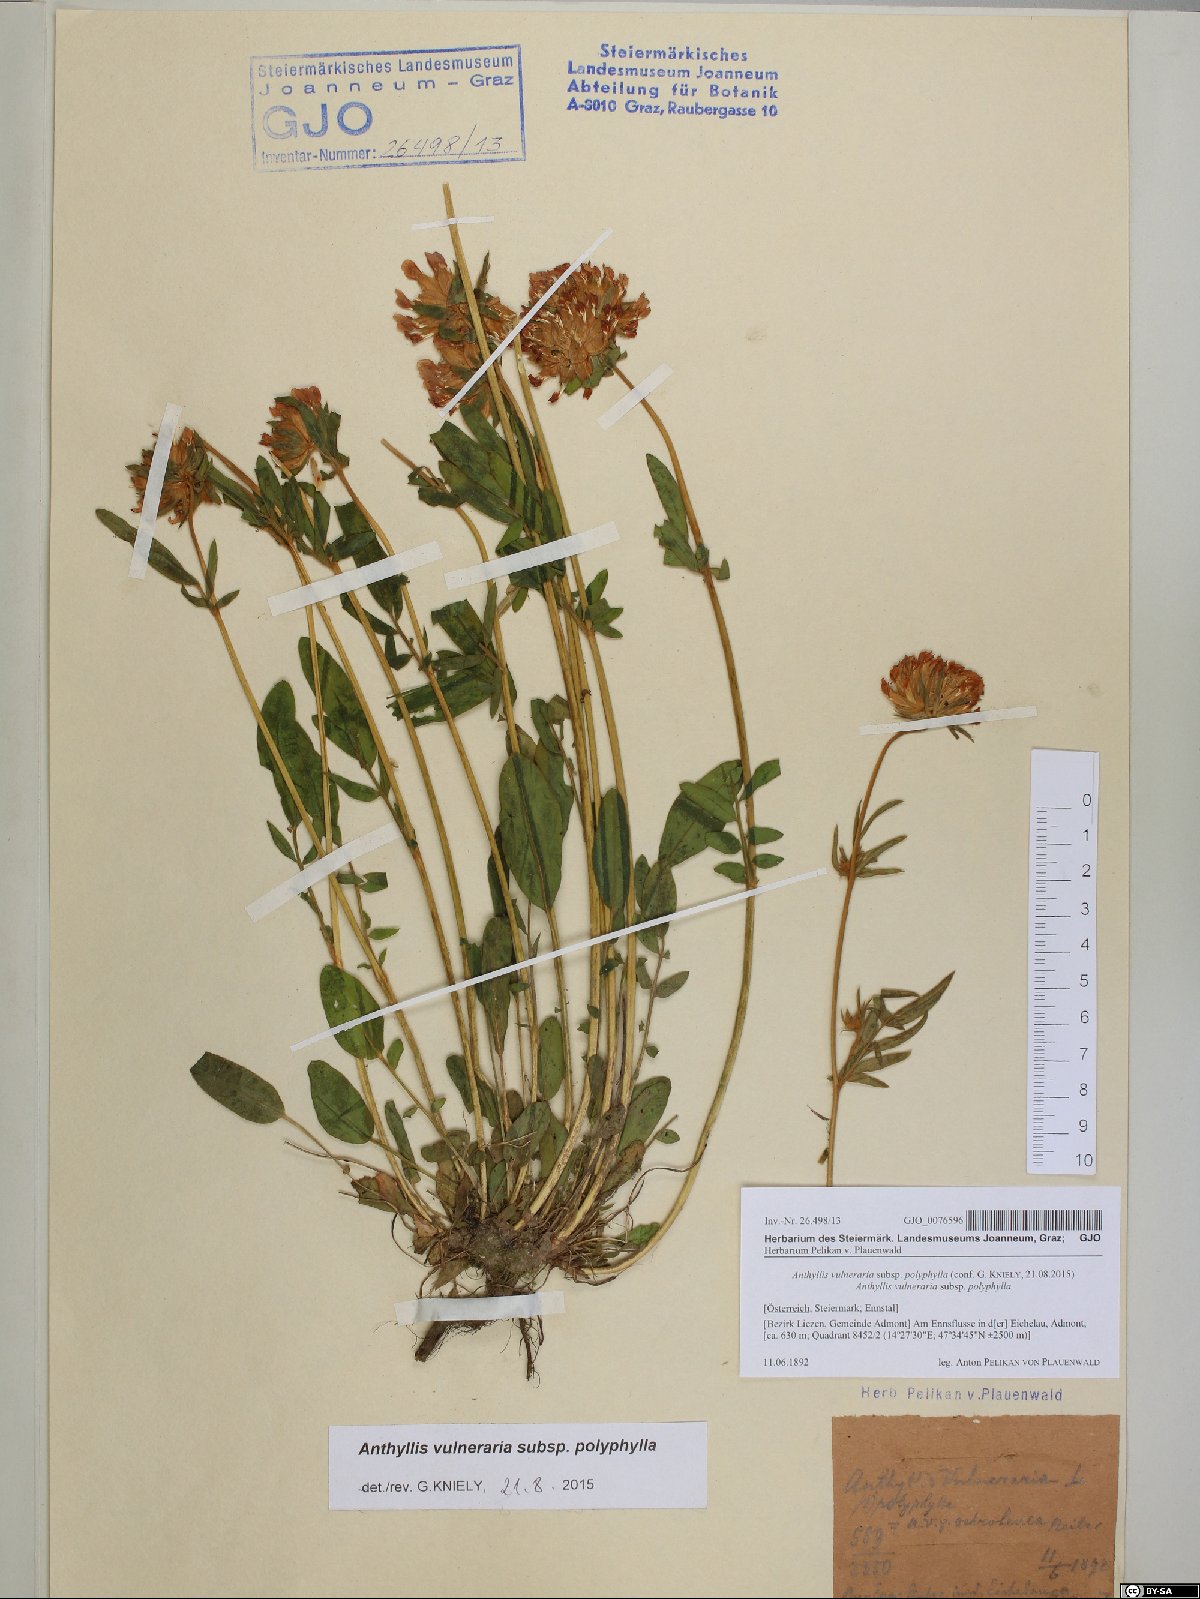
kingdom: Plantae
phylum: Tracheophyta
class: Magnoliopsida
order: Fabales
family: Fabaceae
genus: Anthyllis
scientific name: Anthyllis vulneraria
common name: Kidney vetch
